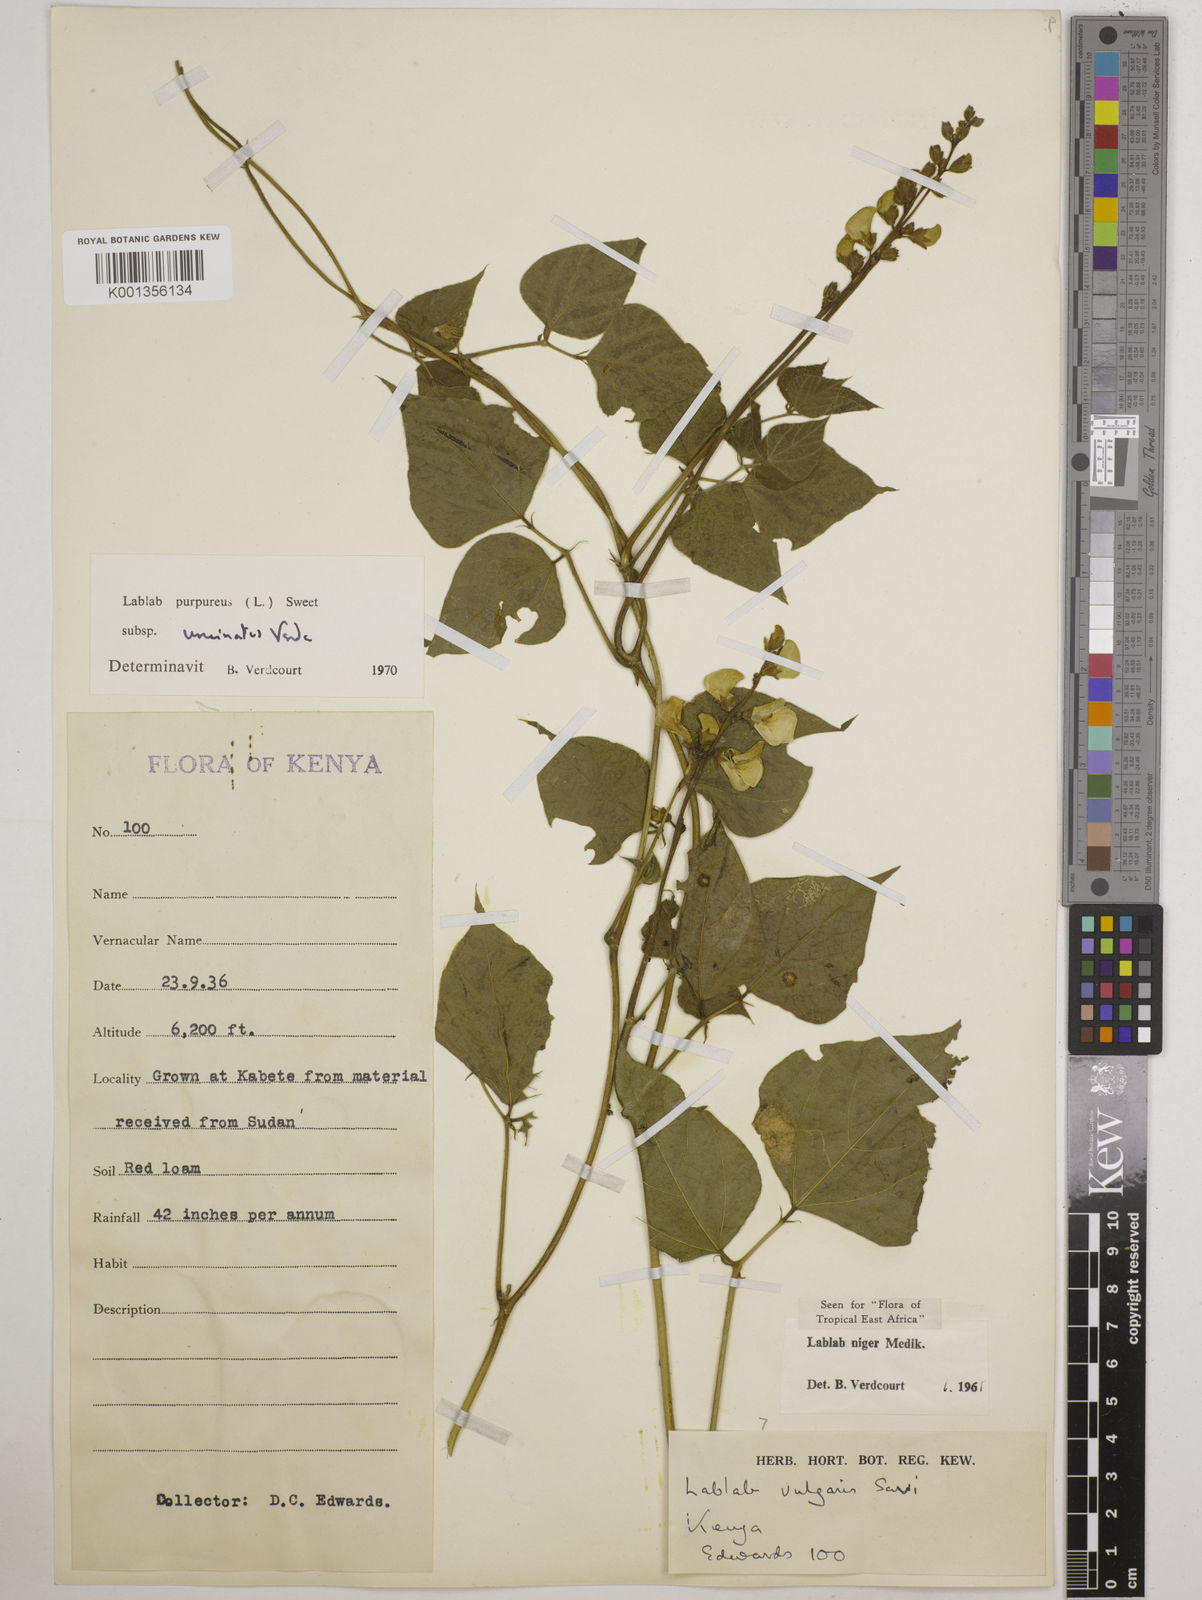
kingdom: Plantae
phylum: Tracheophyta
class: Magnoliopsida
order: Fabales
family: Fabaceae
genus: Lablab
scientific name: Lablab purpureus
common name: Lablab-bean
